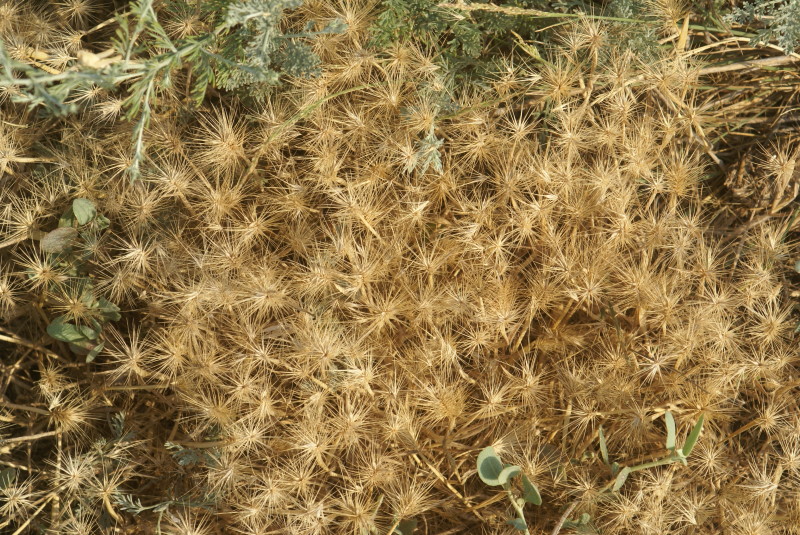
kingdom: Plantae
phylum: Tracheophyta
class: Liliopsida
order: Poales
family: Poaceae
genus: Hordeum
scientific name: Hordeum marinum
